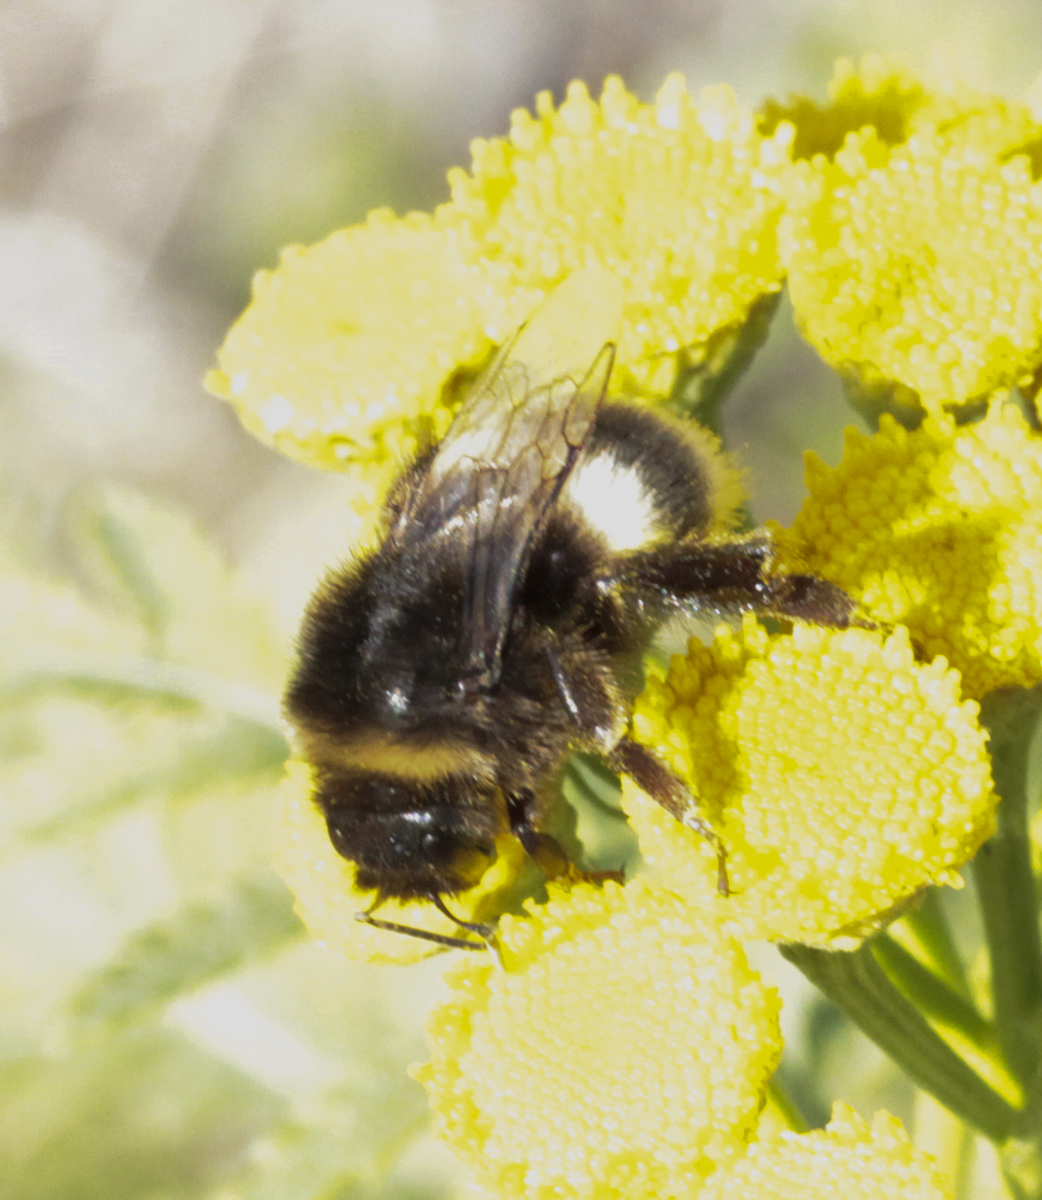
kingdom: Animalia
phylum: Arthropoda
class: Insecta
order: Hymenoptera
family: Apidae
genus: Bombus
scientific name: Bombus
